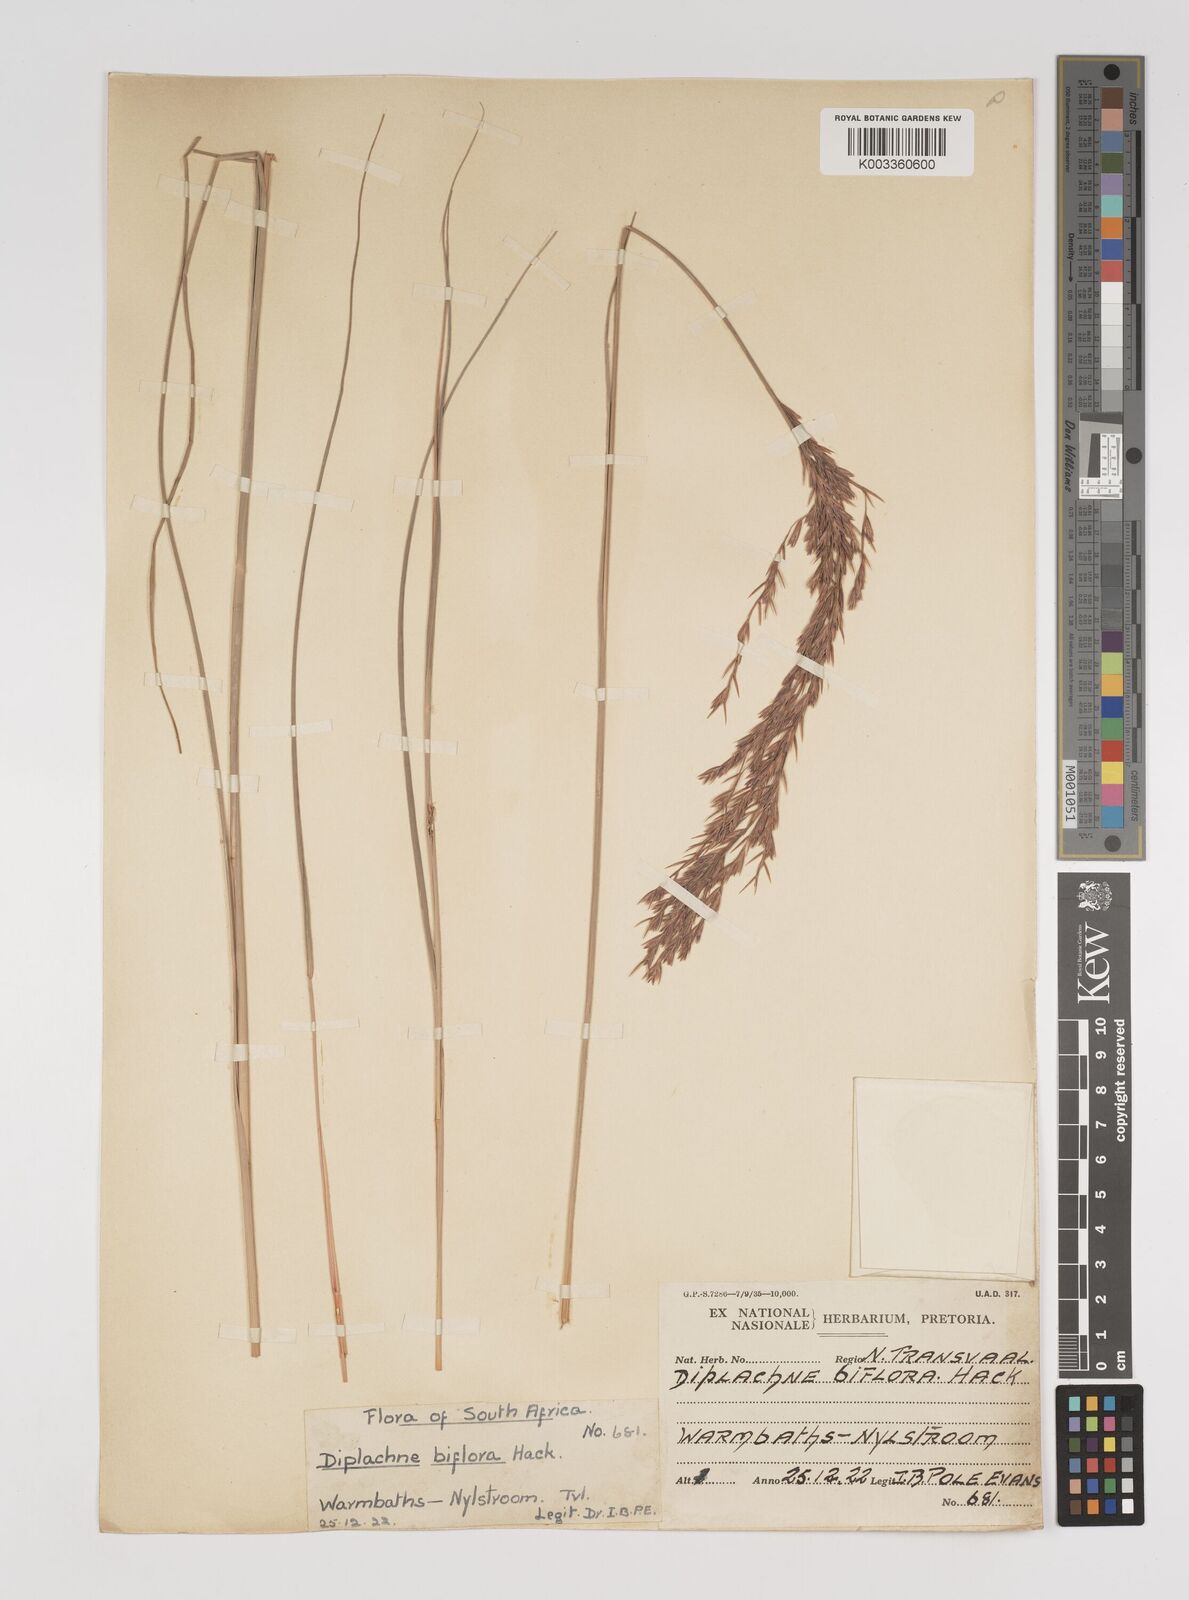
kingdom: Plantae
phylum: Tracheophyta
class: Liliopsida
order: Poales
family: Poaceae
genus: Bewsia
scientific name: Bewsia biflora
